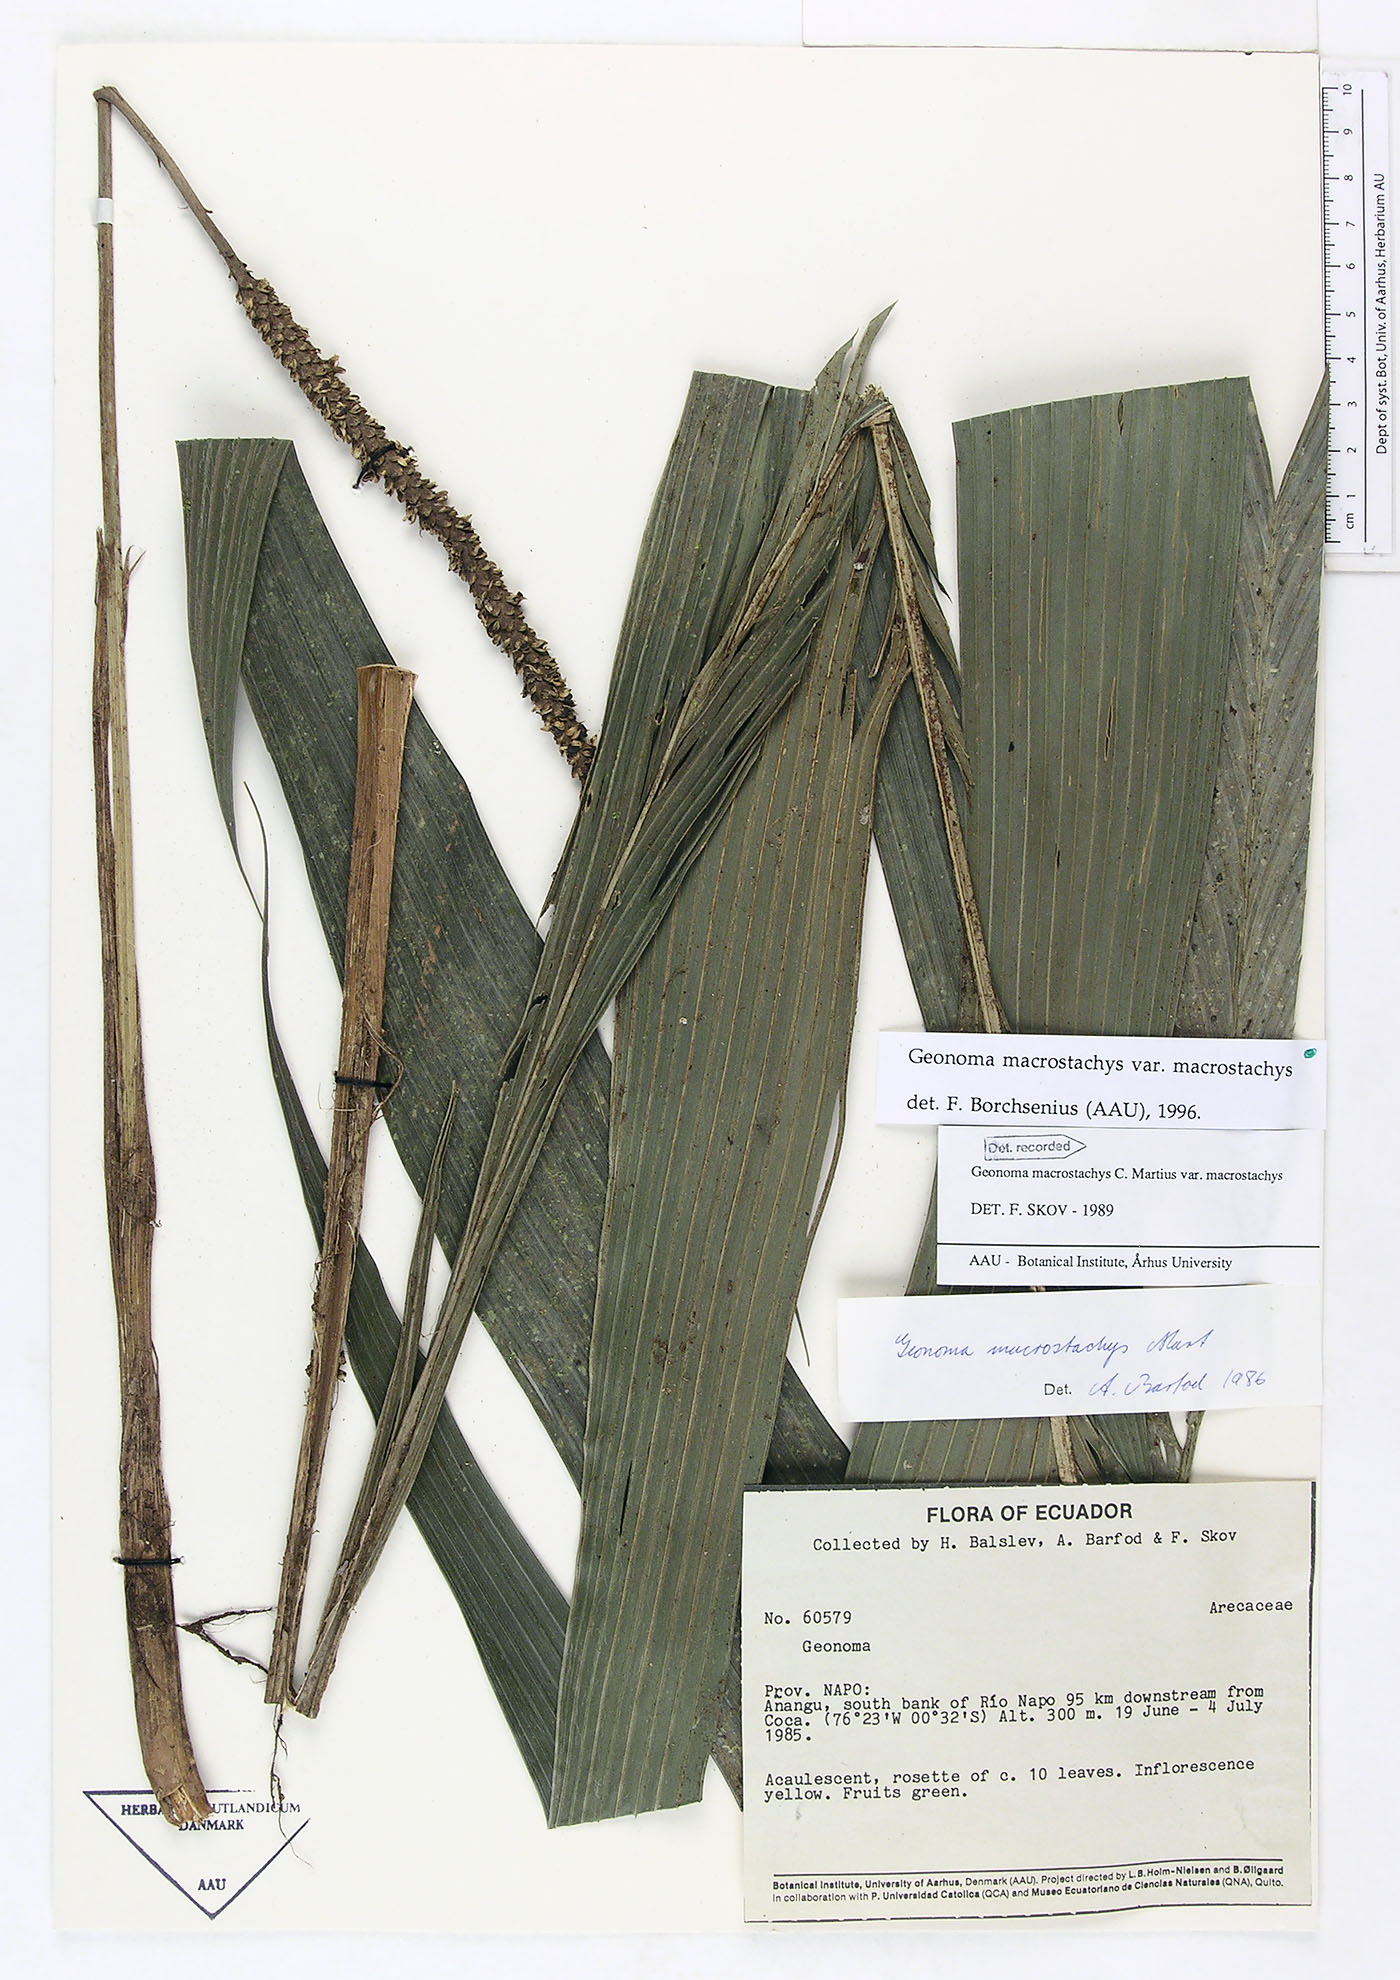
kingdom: Plantae
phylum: Tracheophyta
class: Liliopsida
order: Arecales
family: Arecaceae
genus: Geonoma
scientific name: Geonoma macrostachys
